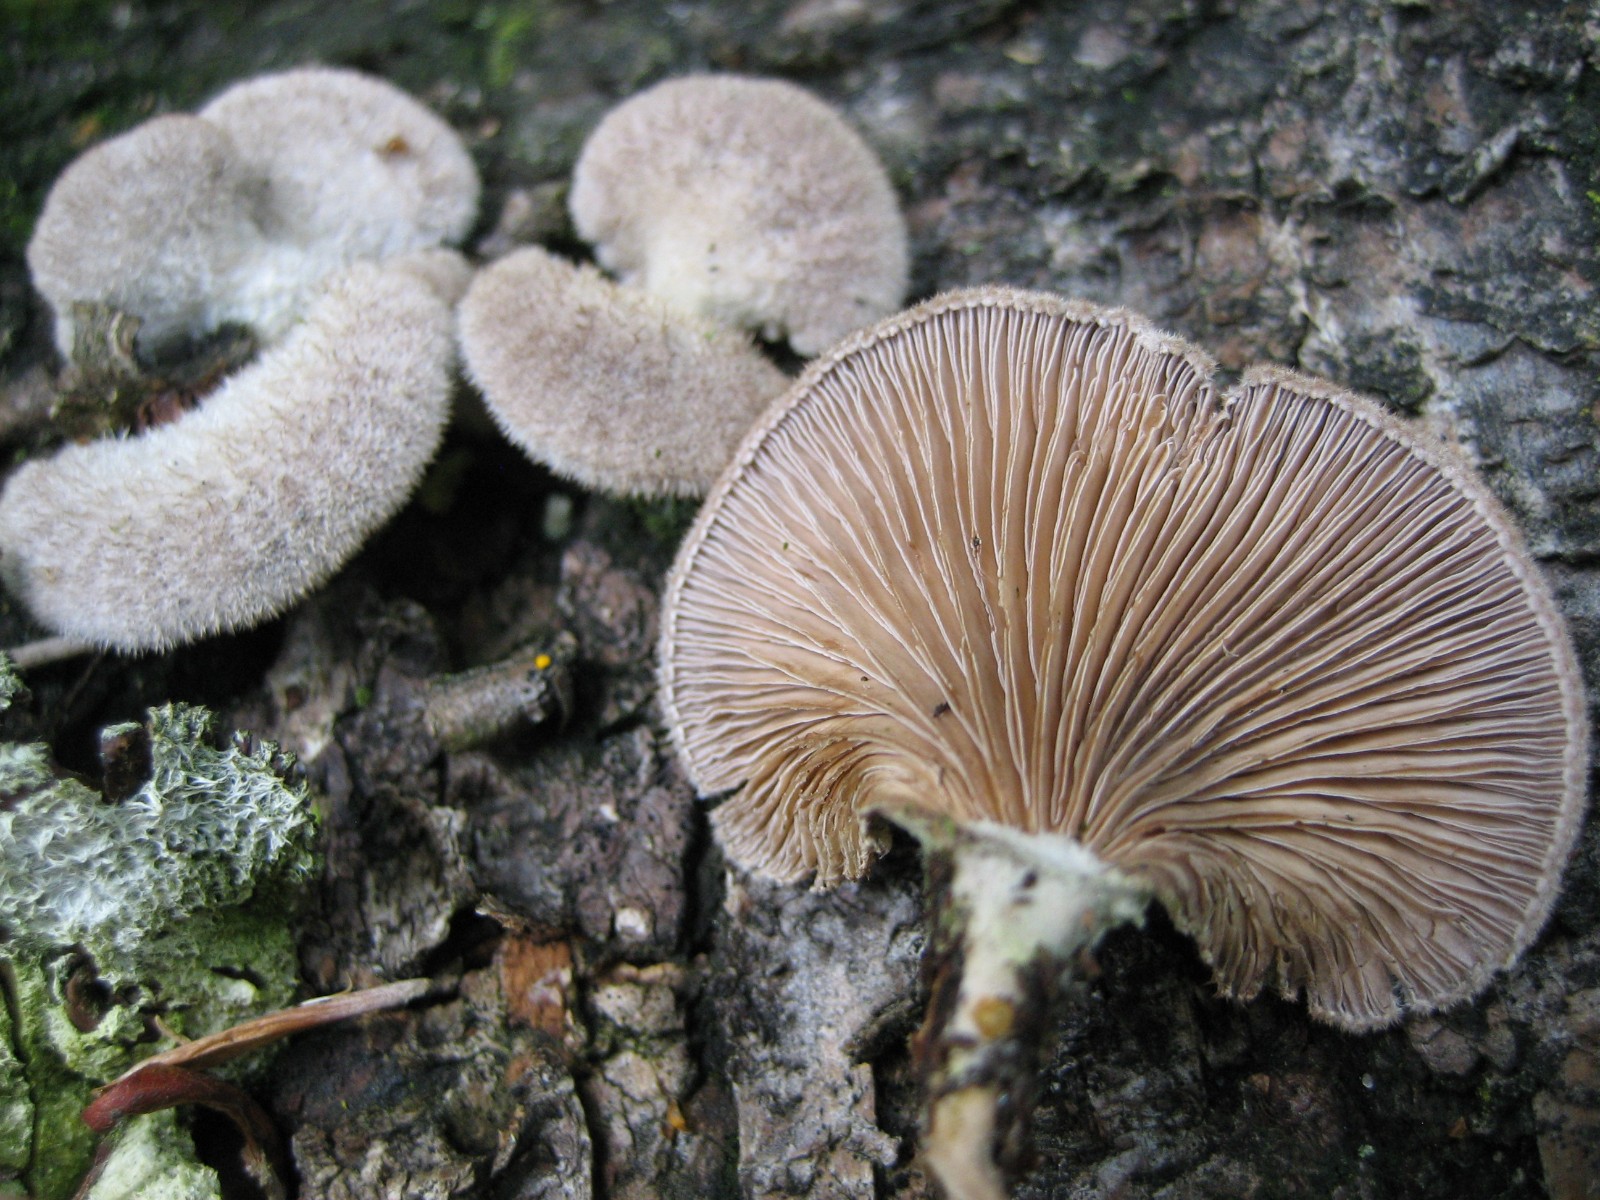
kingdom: Fungi
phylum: Basidiomycota
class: Agaricomycetes
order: Agaricales
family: Schizophyllaceae
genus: Schizophyllum
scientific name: Schizophyllum commune
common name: kløvblad
